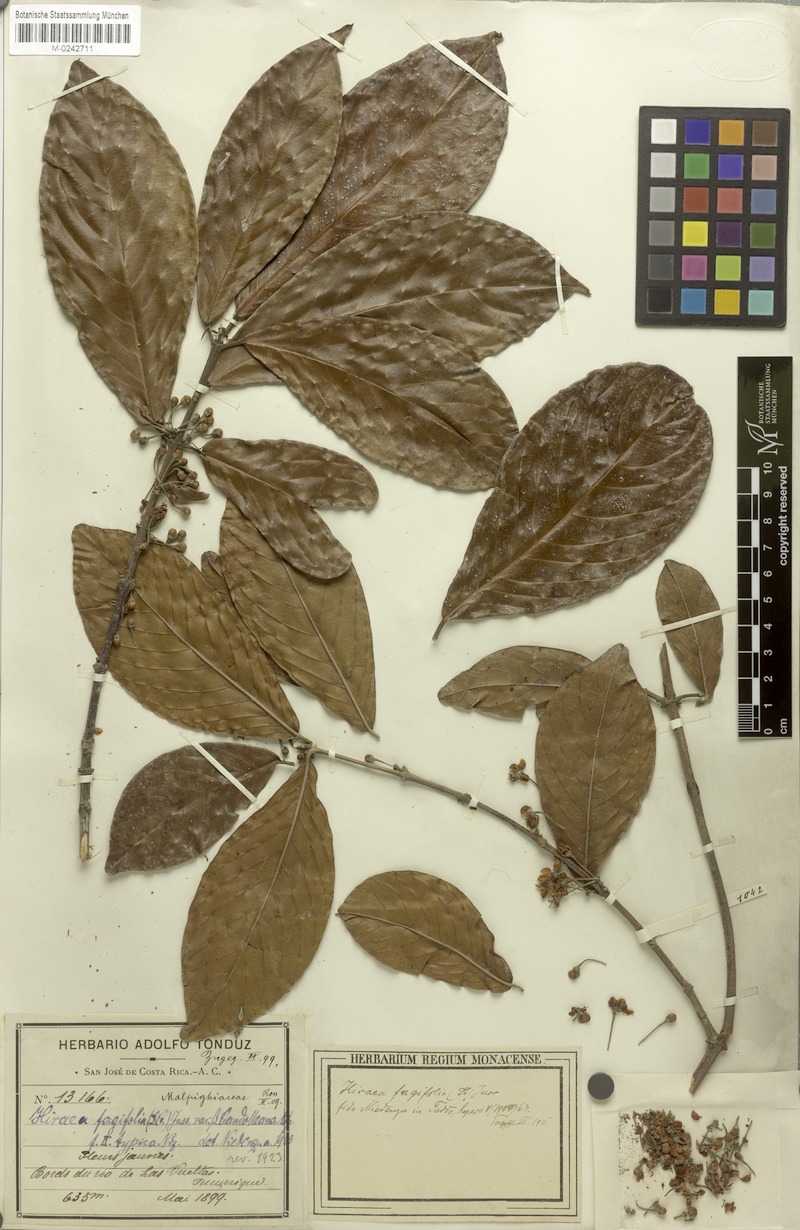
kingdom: Plantae
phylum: Tracheophyta
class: Magnoliopsida
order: Malpighiales
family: Malpighiaceae
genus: Hiraea
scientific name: Hiraea fagifolia
